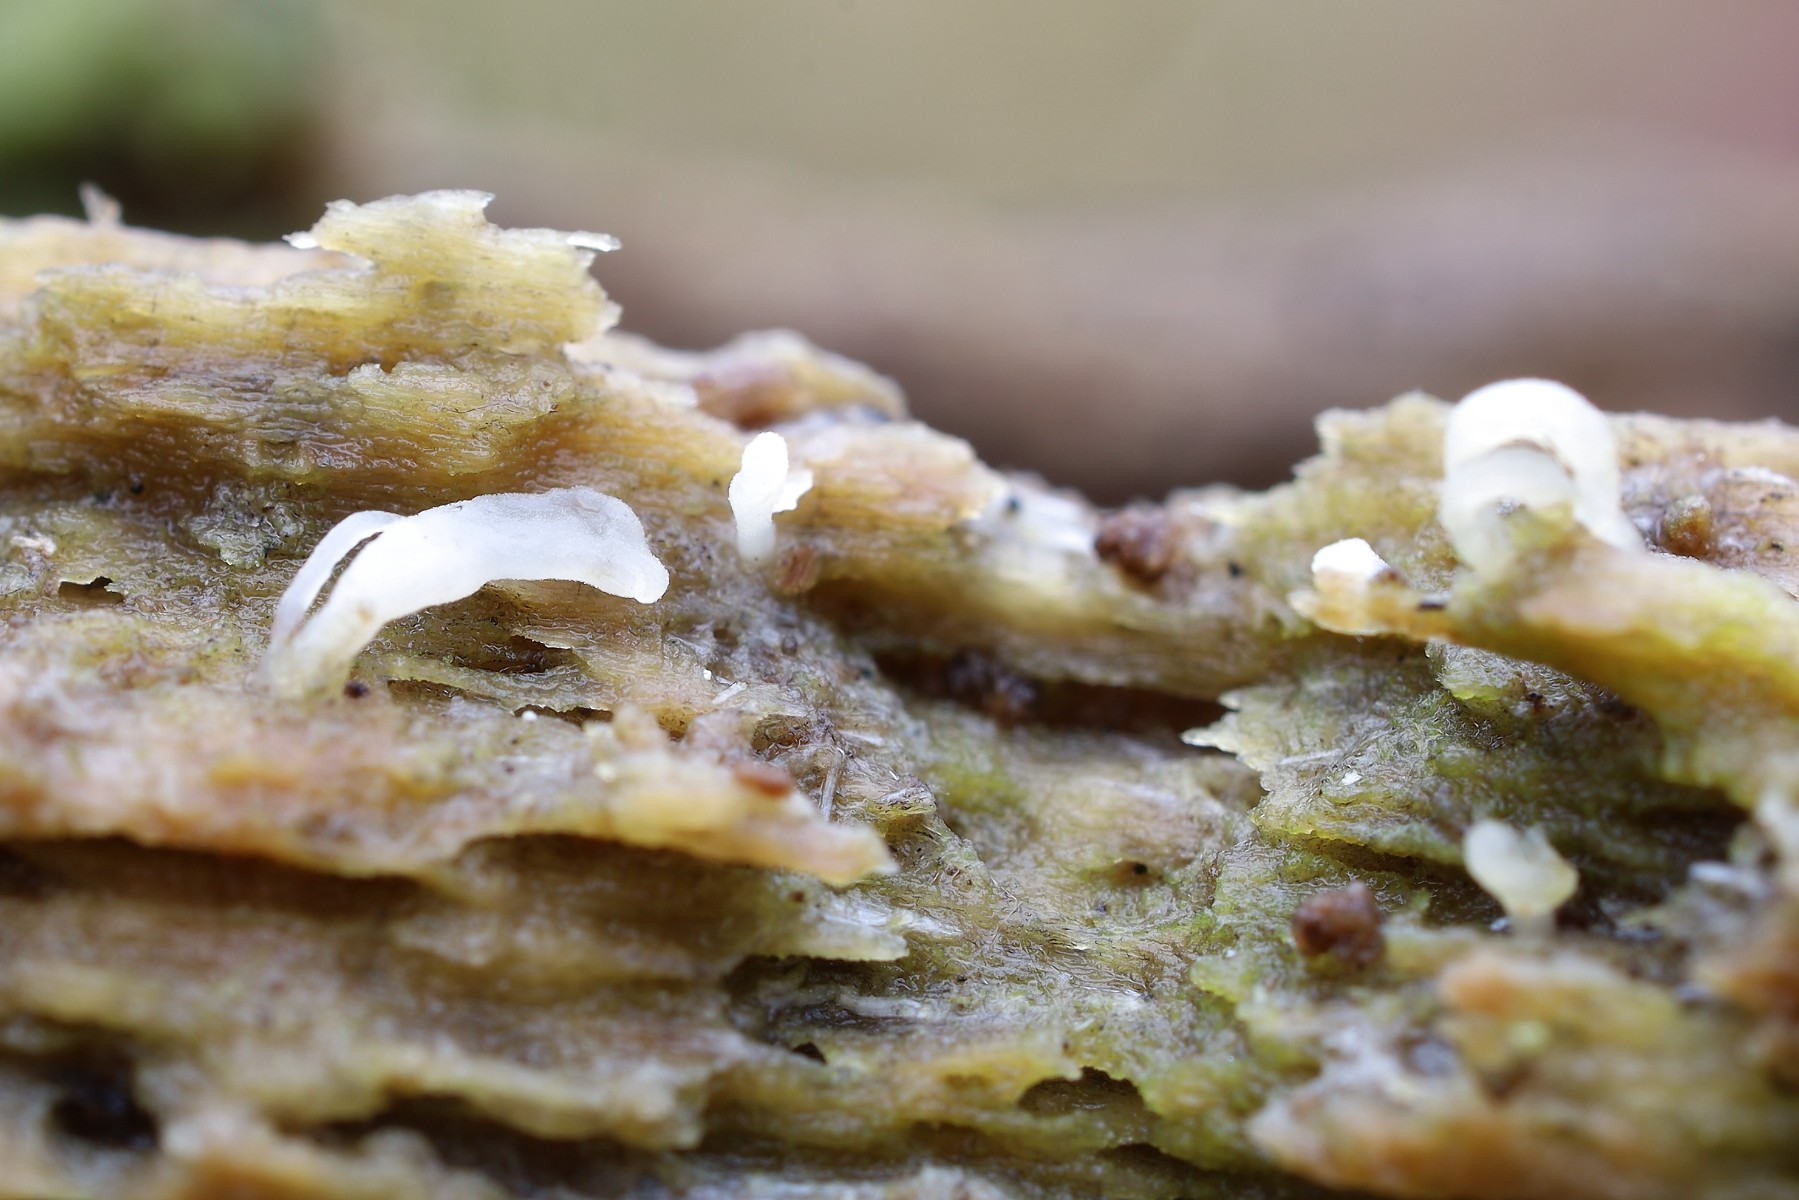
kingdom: Fungi
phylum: Basidiomycota
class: Agaricomycetes
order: Cantharellales
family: Hydnaceae
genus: Multiclavula
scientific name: Multiclavula mucida
